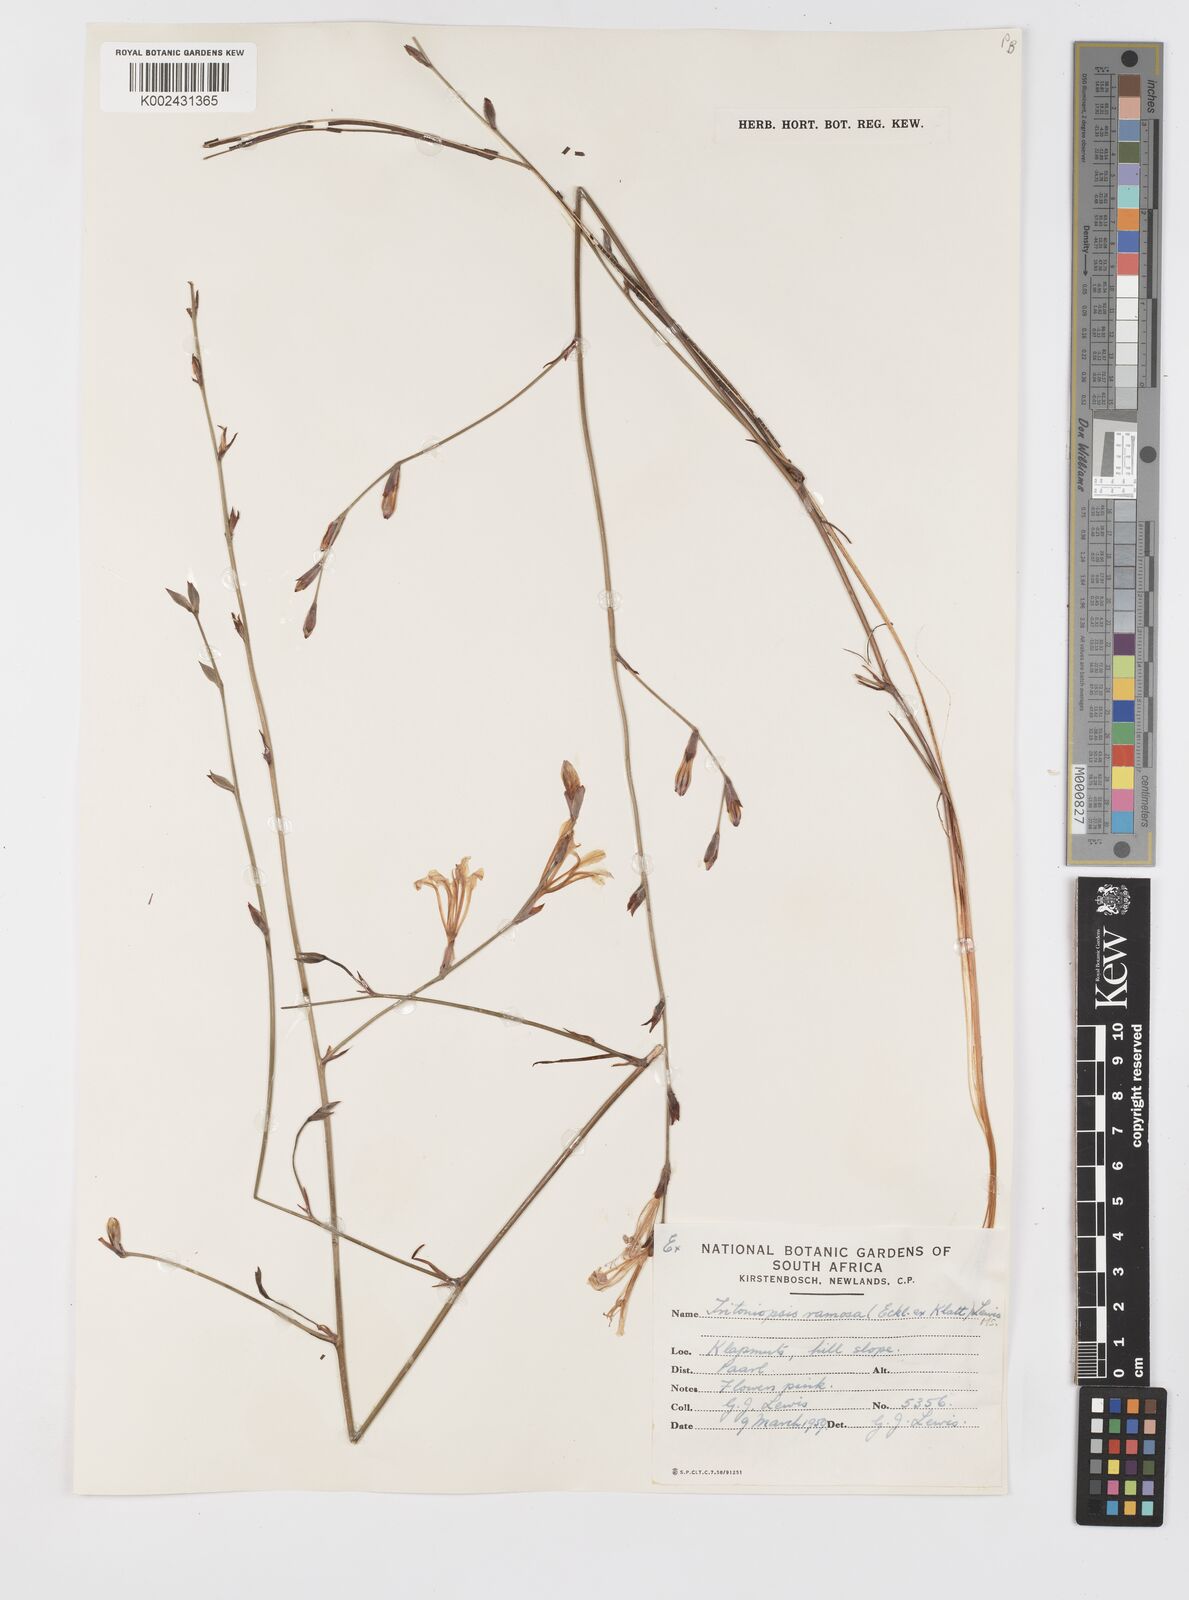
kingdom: Plantae
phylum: Tracheophyta
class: Liliopsida
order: Asparagales
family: Iridaceae
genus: Tritoniopsis
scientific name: Tritoniopsis ramosa
